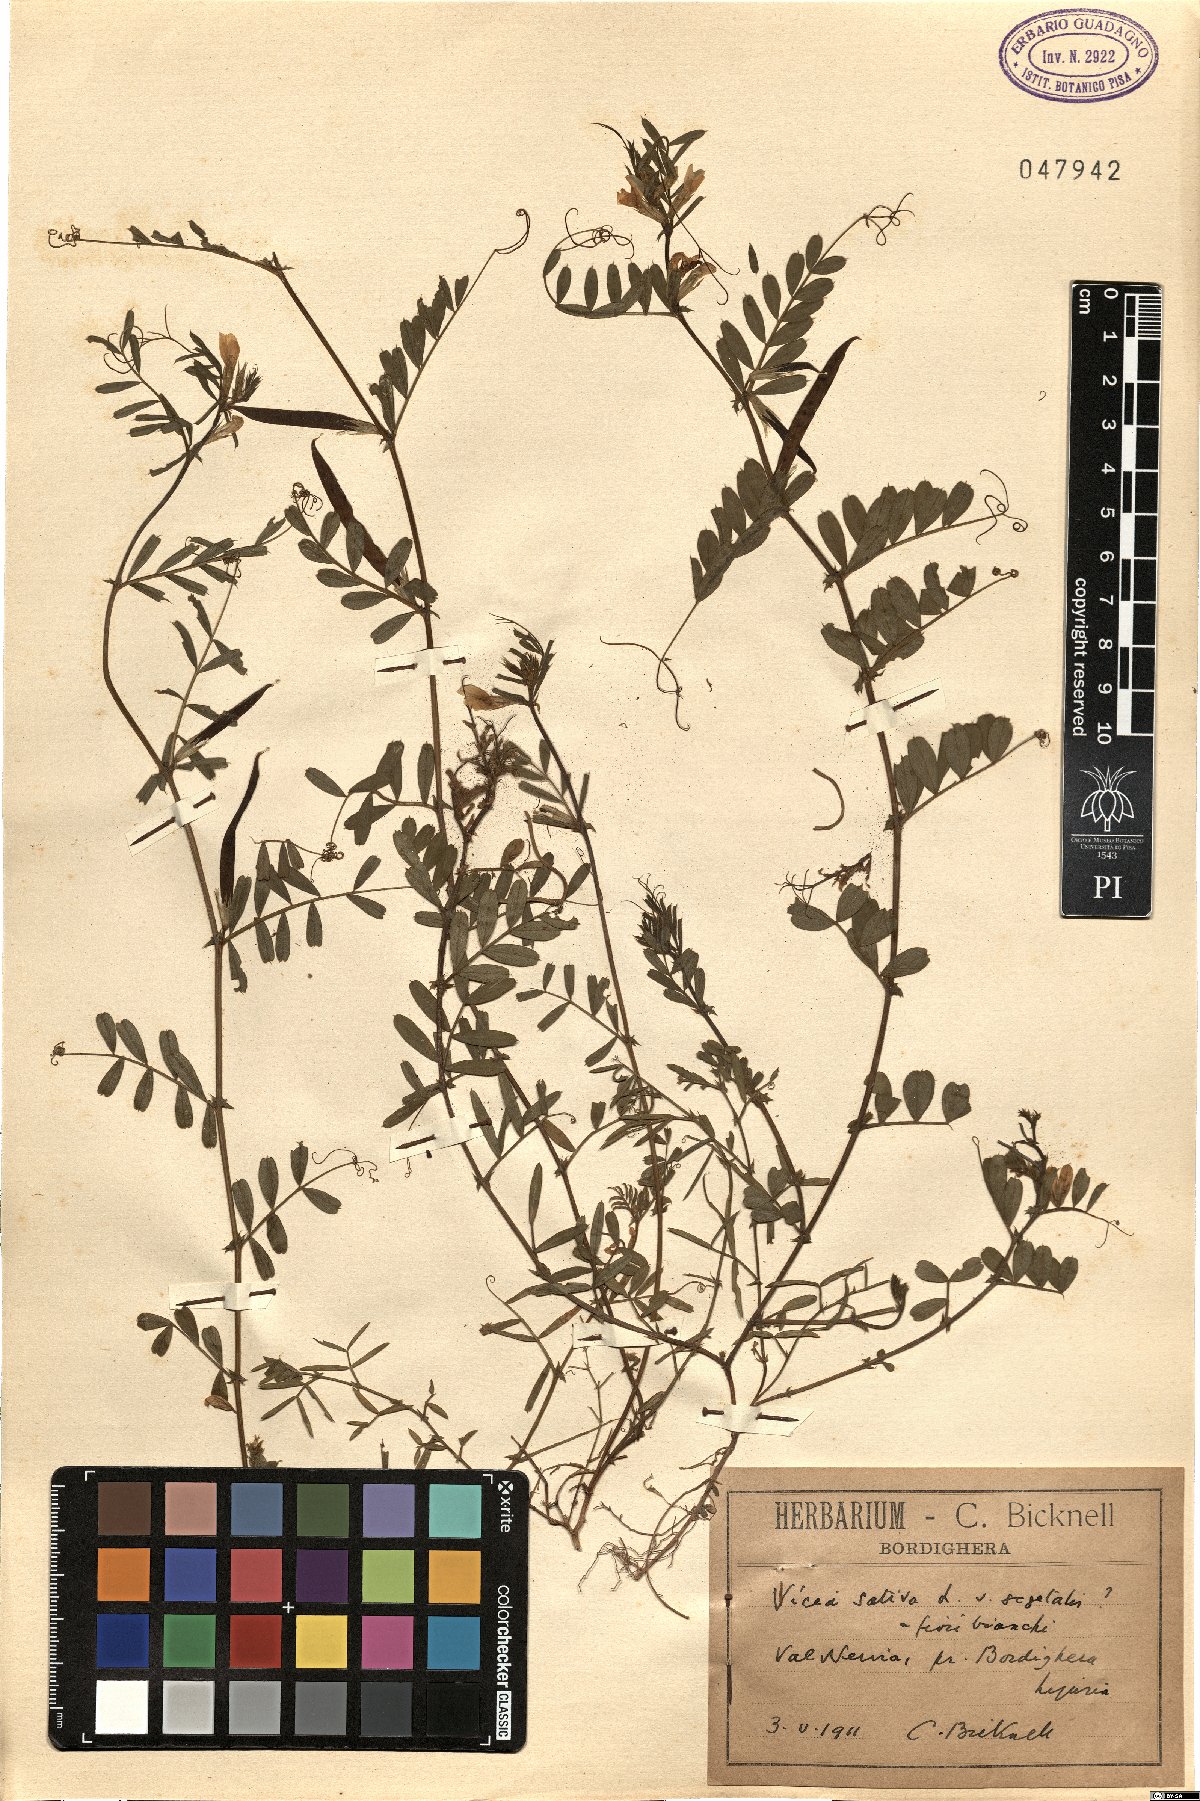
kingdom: Plantae
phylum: Tracheophyta
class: Magnoliopsida
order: Fabales
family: Fabaceae
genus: Vicia
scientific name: Vicia sativa
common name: Garden vetch
